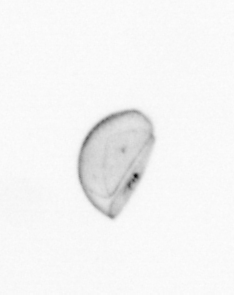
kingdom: Chromista
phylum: Ochrophyta
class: Bacillariophyceae
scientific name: Bacillariophyceae
